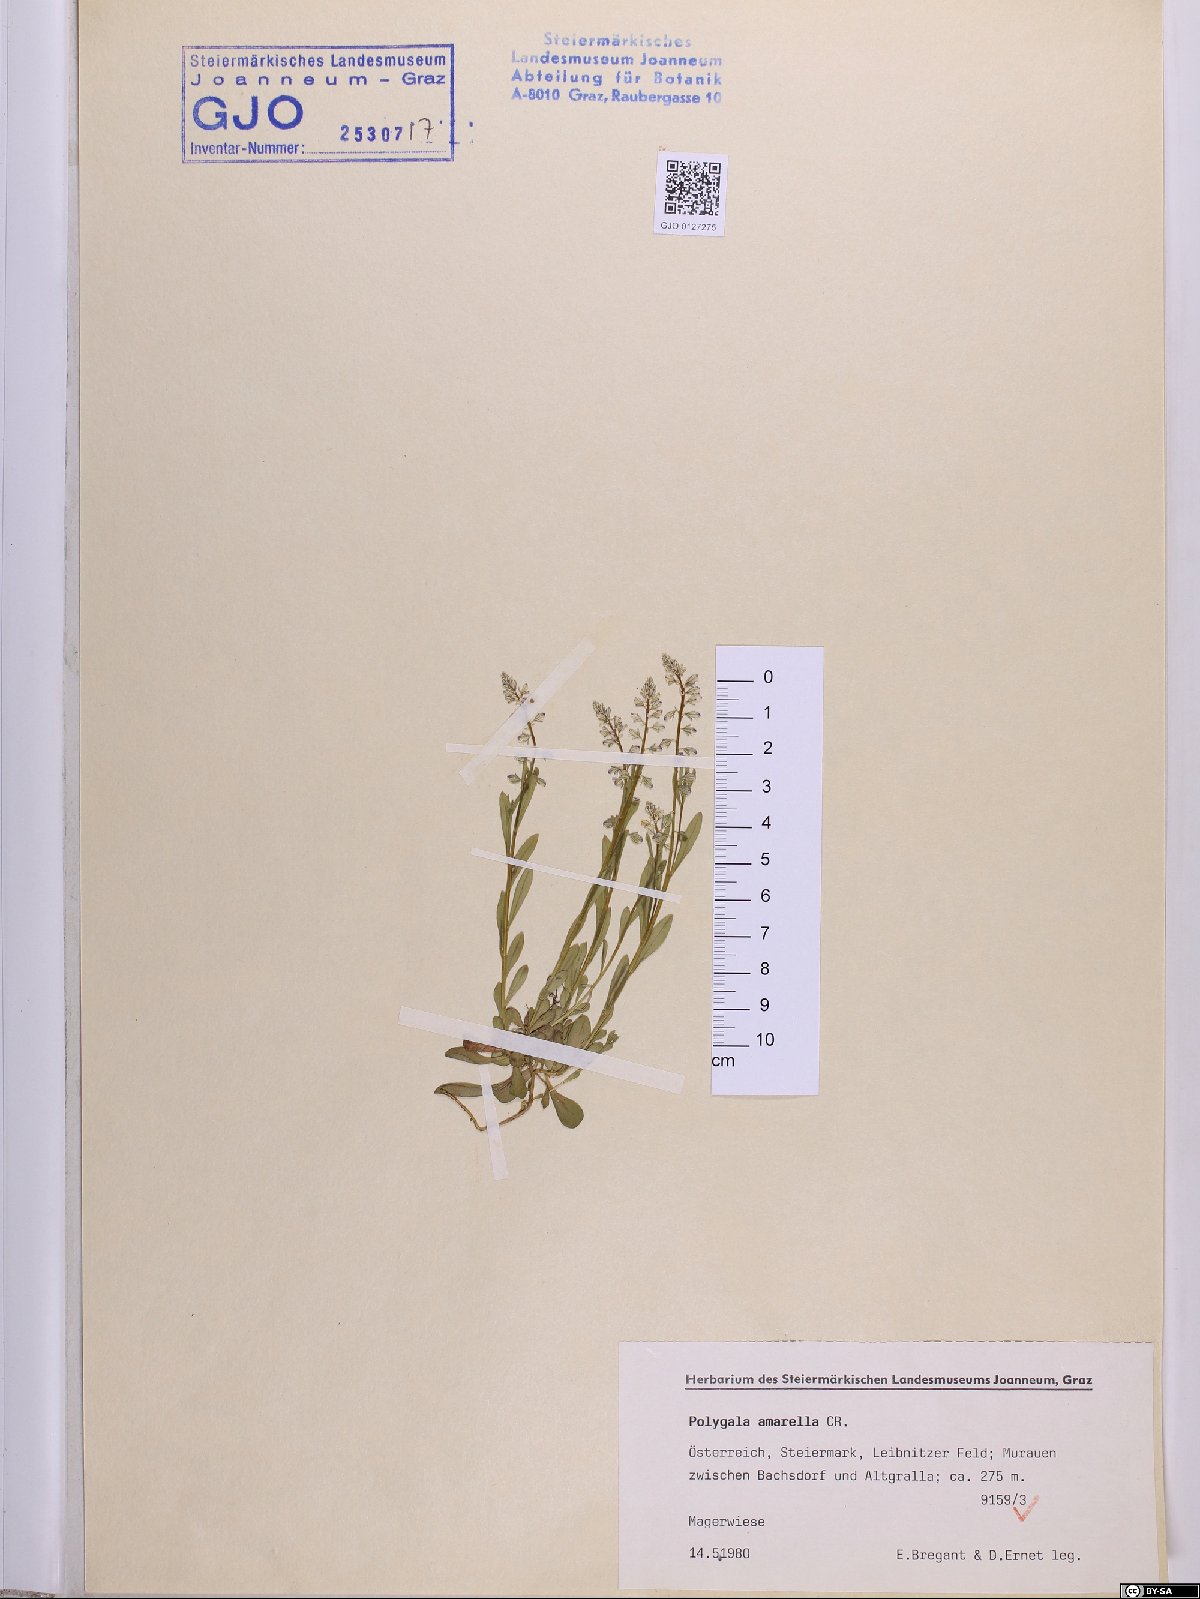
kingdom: Plantae
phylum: Tracheophyta
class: Magnoliopsida
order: Fabales
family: Polygalaceae
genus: Polygala
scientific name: Polygala amarella
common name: Dwarf milkwort
